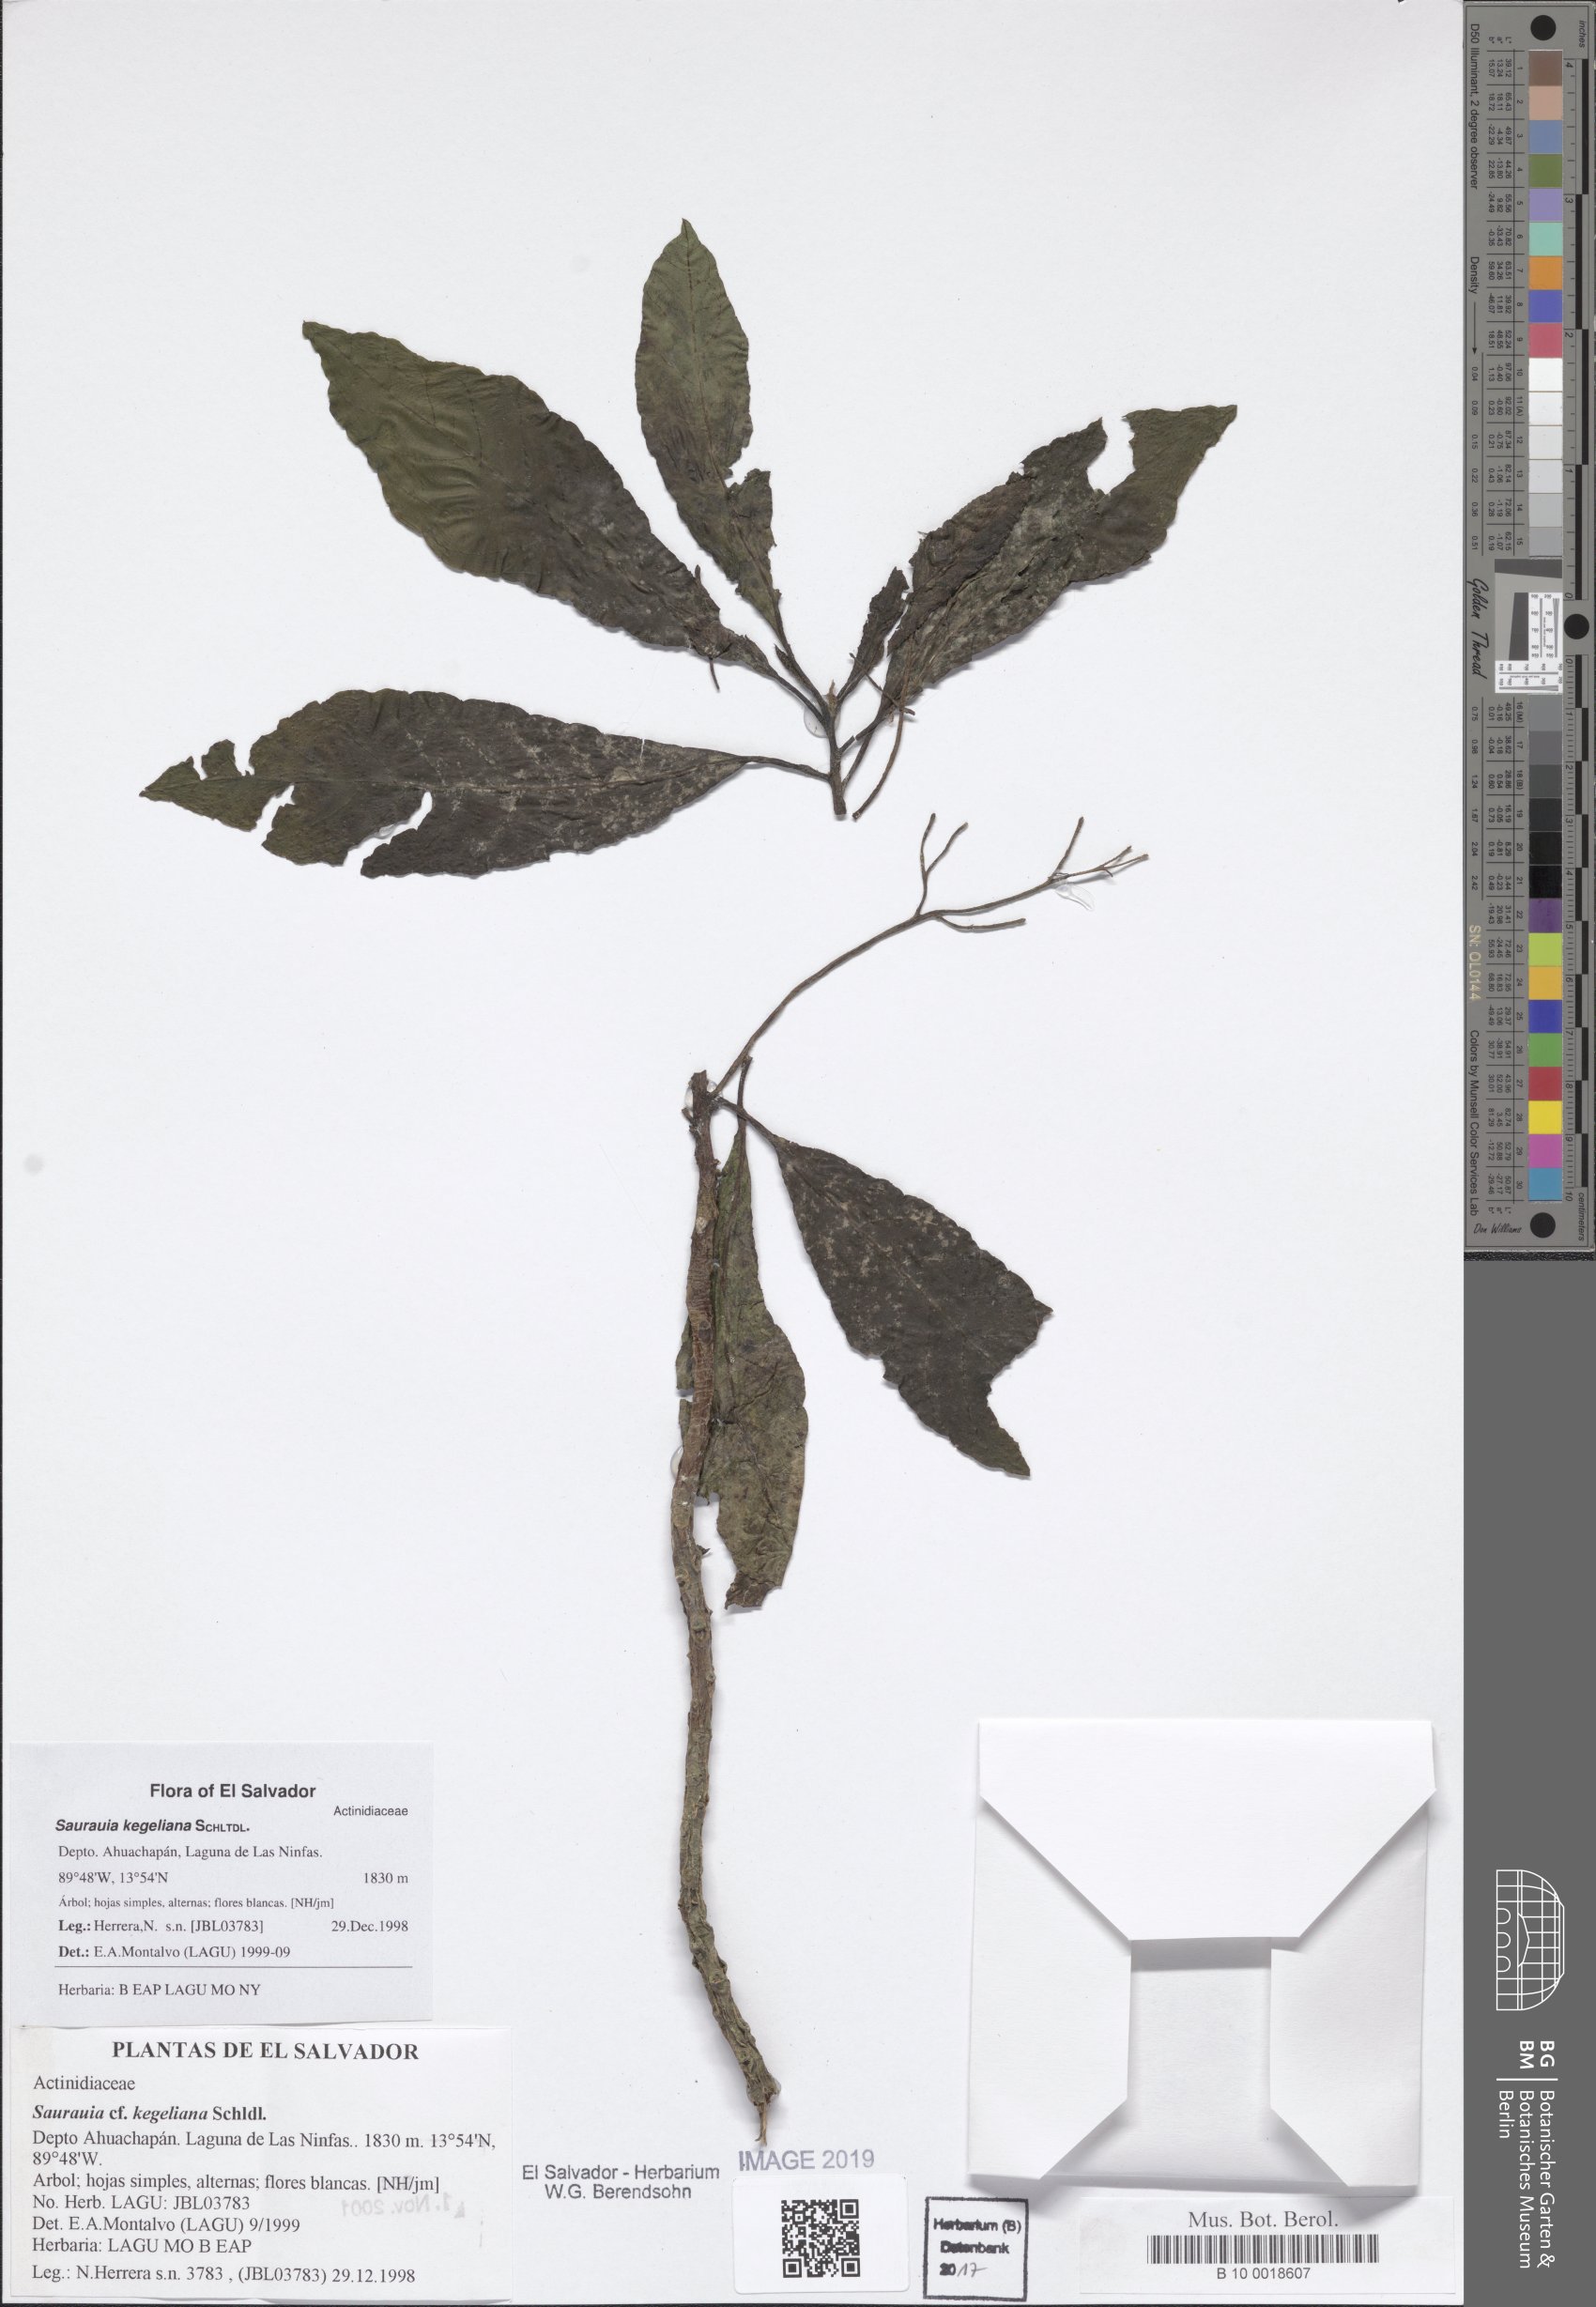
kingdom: Plantae
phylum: Tracheophyta
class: Magnoliopsida
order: Myrtales
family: Melastomataceae
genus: Heterocentron
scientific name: Heterocentron glandulosum
